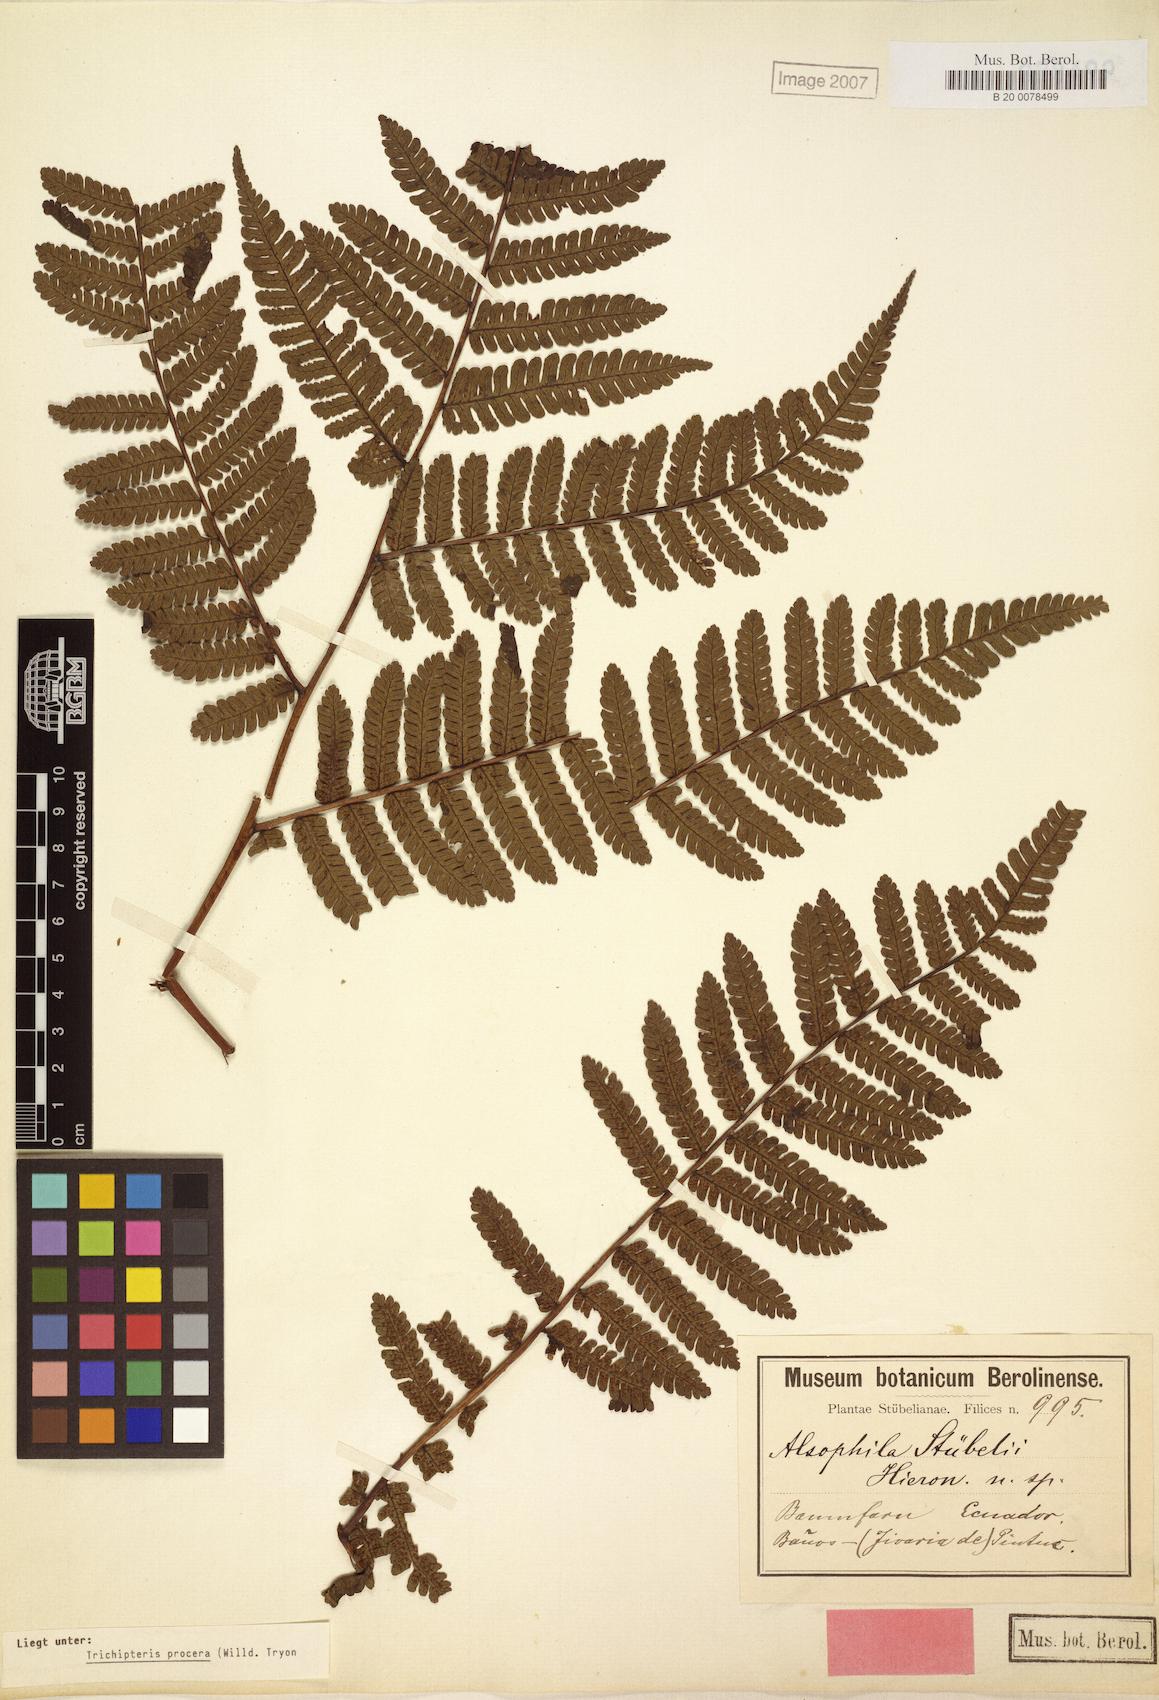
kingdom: Plantae
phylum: Tracheophyta
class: Polypodiopsida
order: Cyatheales
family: Cyatheaceae
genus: Cyathea
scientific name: Cyathea pungens
